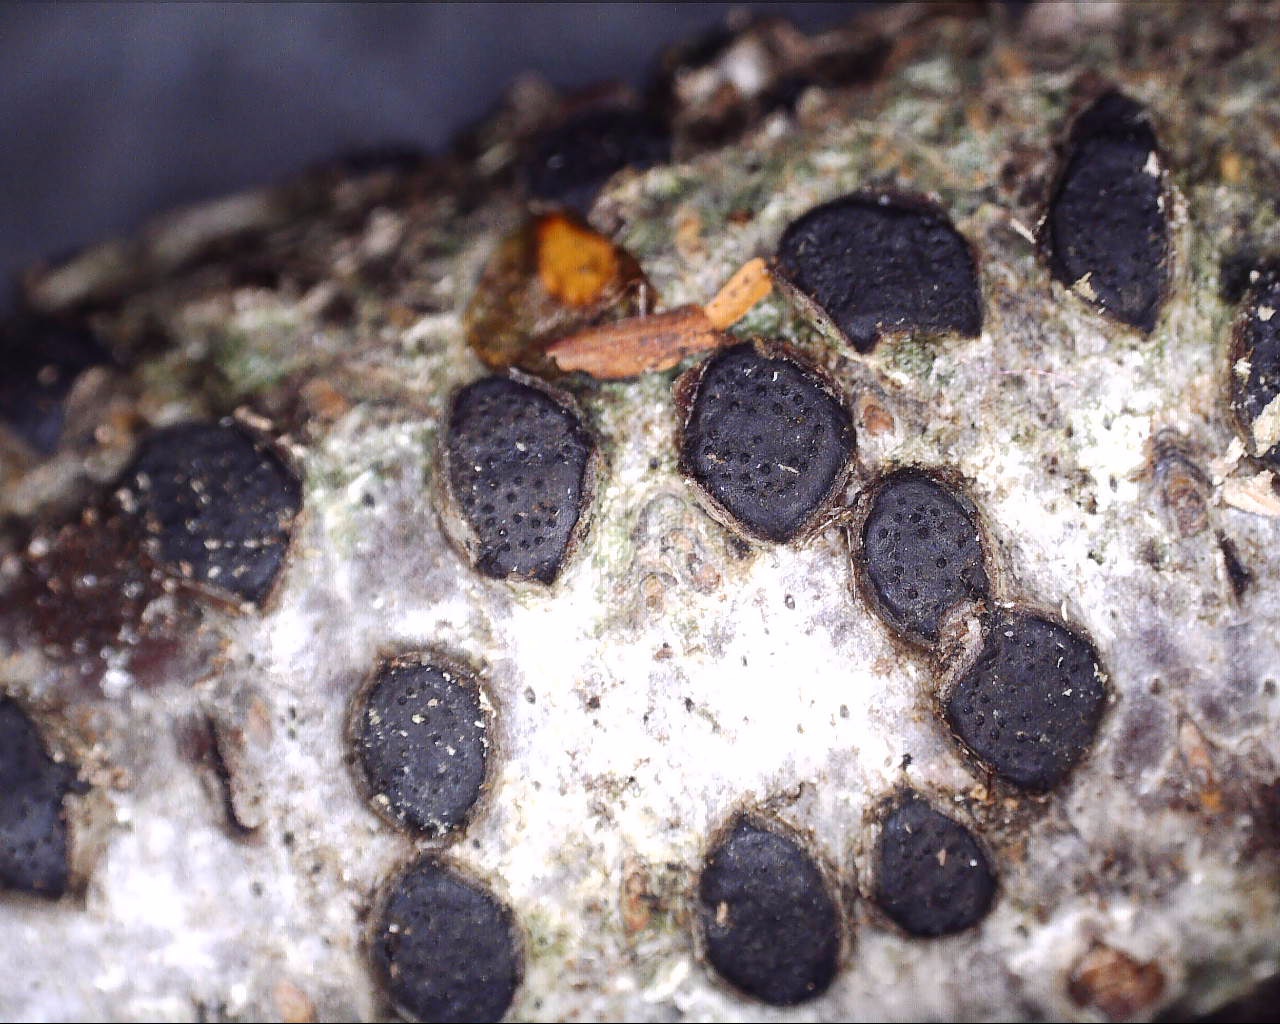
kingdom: Fungi
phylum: Ascomycota
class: Sordariomycetes
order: Xylariales
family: Diatrypaceae
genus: Diatrype
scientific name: Diatrype disciformis
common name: kant-kulskorpe
